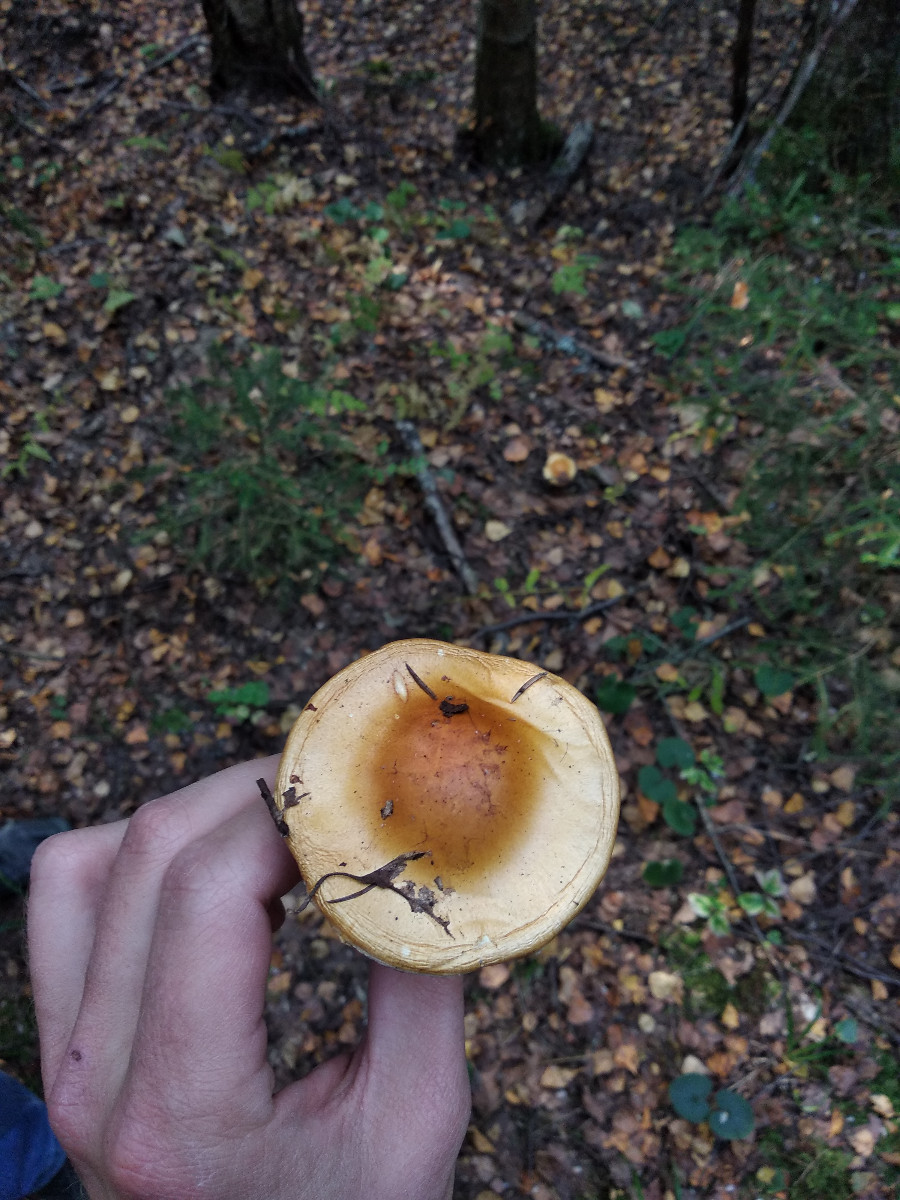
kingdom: Fungi
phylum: Basidiomycota
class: Agaricomycetes
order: Agaricales
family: Cortinariaceae
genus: Cortinarius
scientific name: Cortinarius
